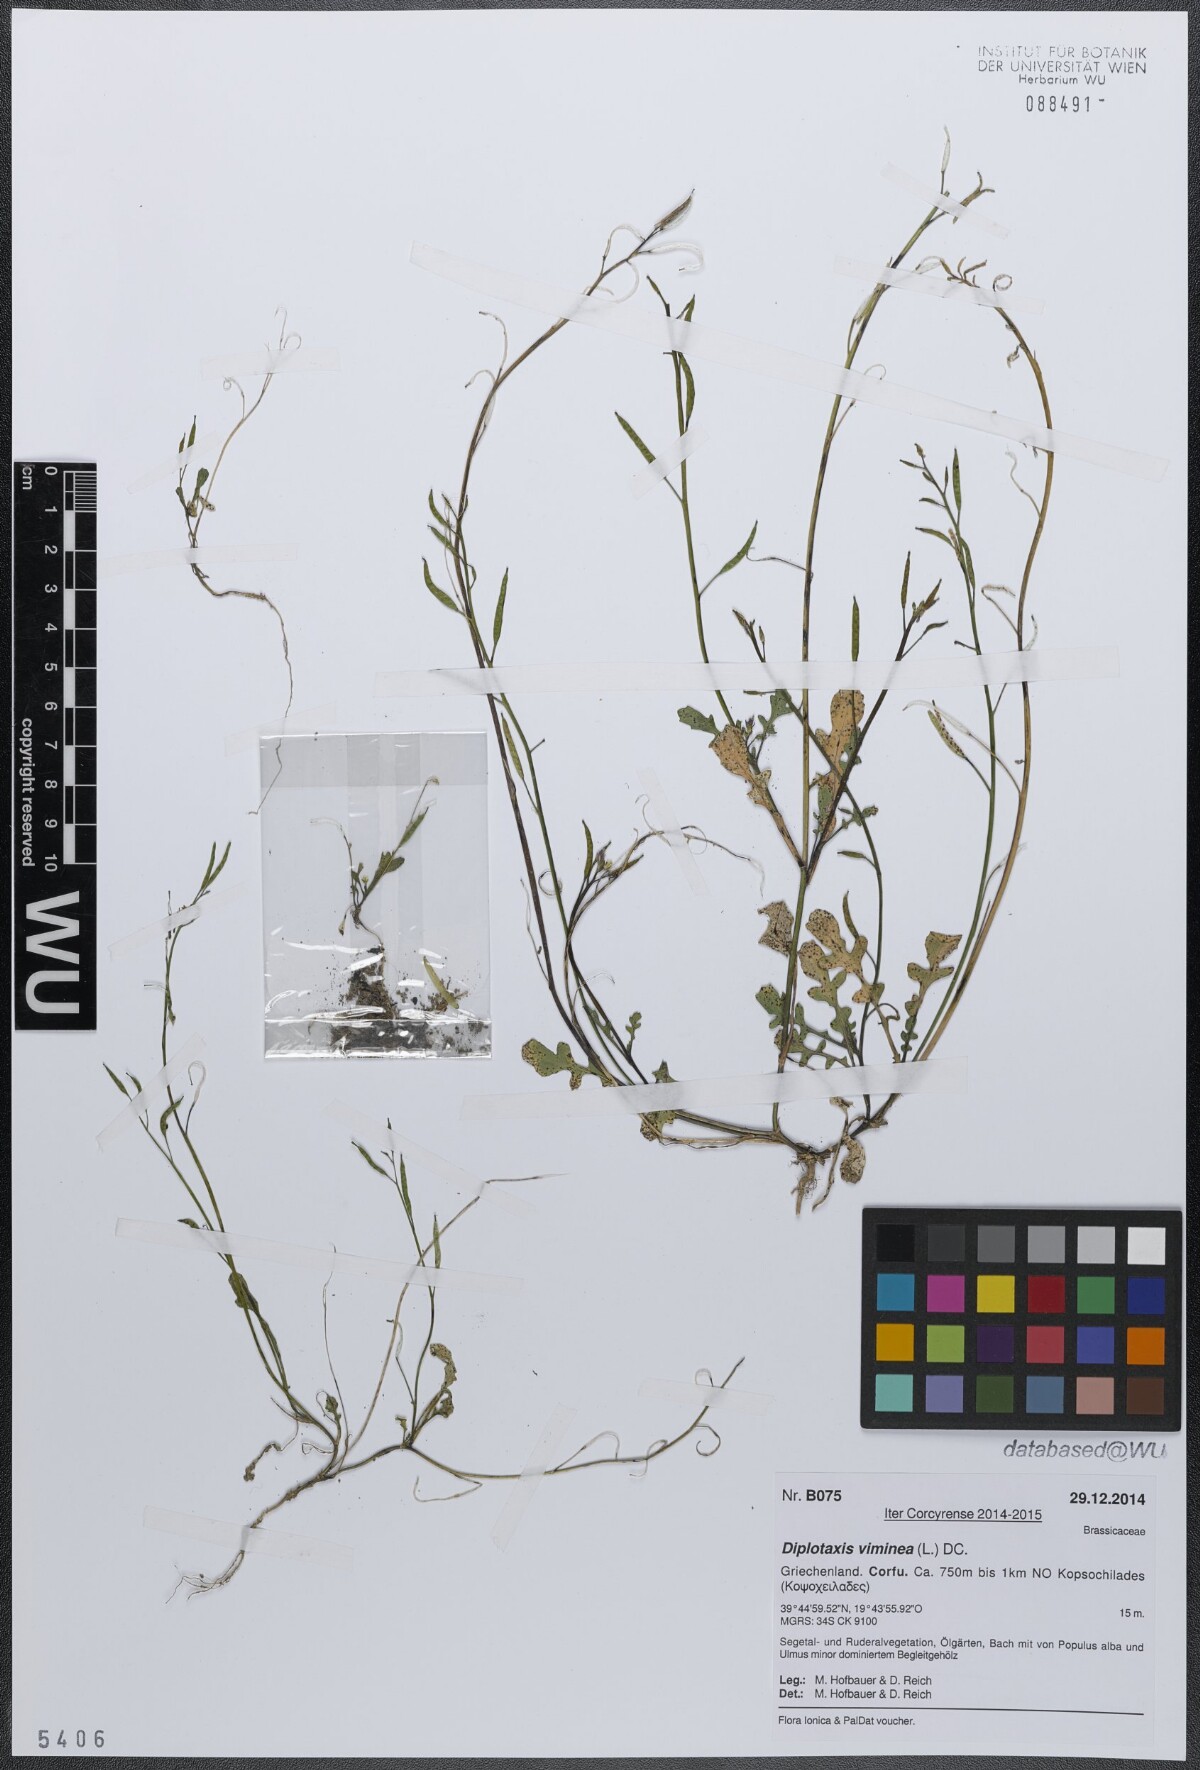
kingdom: Plantae
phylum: Tracheophyta
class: Magnoliopsida
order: Brassicales
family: Brassicaceae
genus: Diplotaxis
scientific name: Diplotaxis viminea
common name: Vineyard wall rocket
